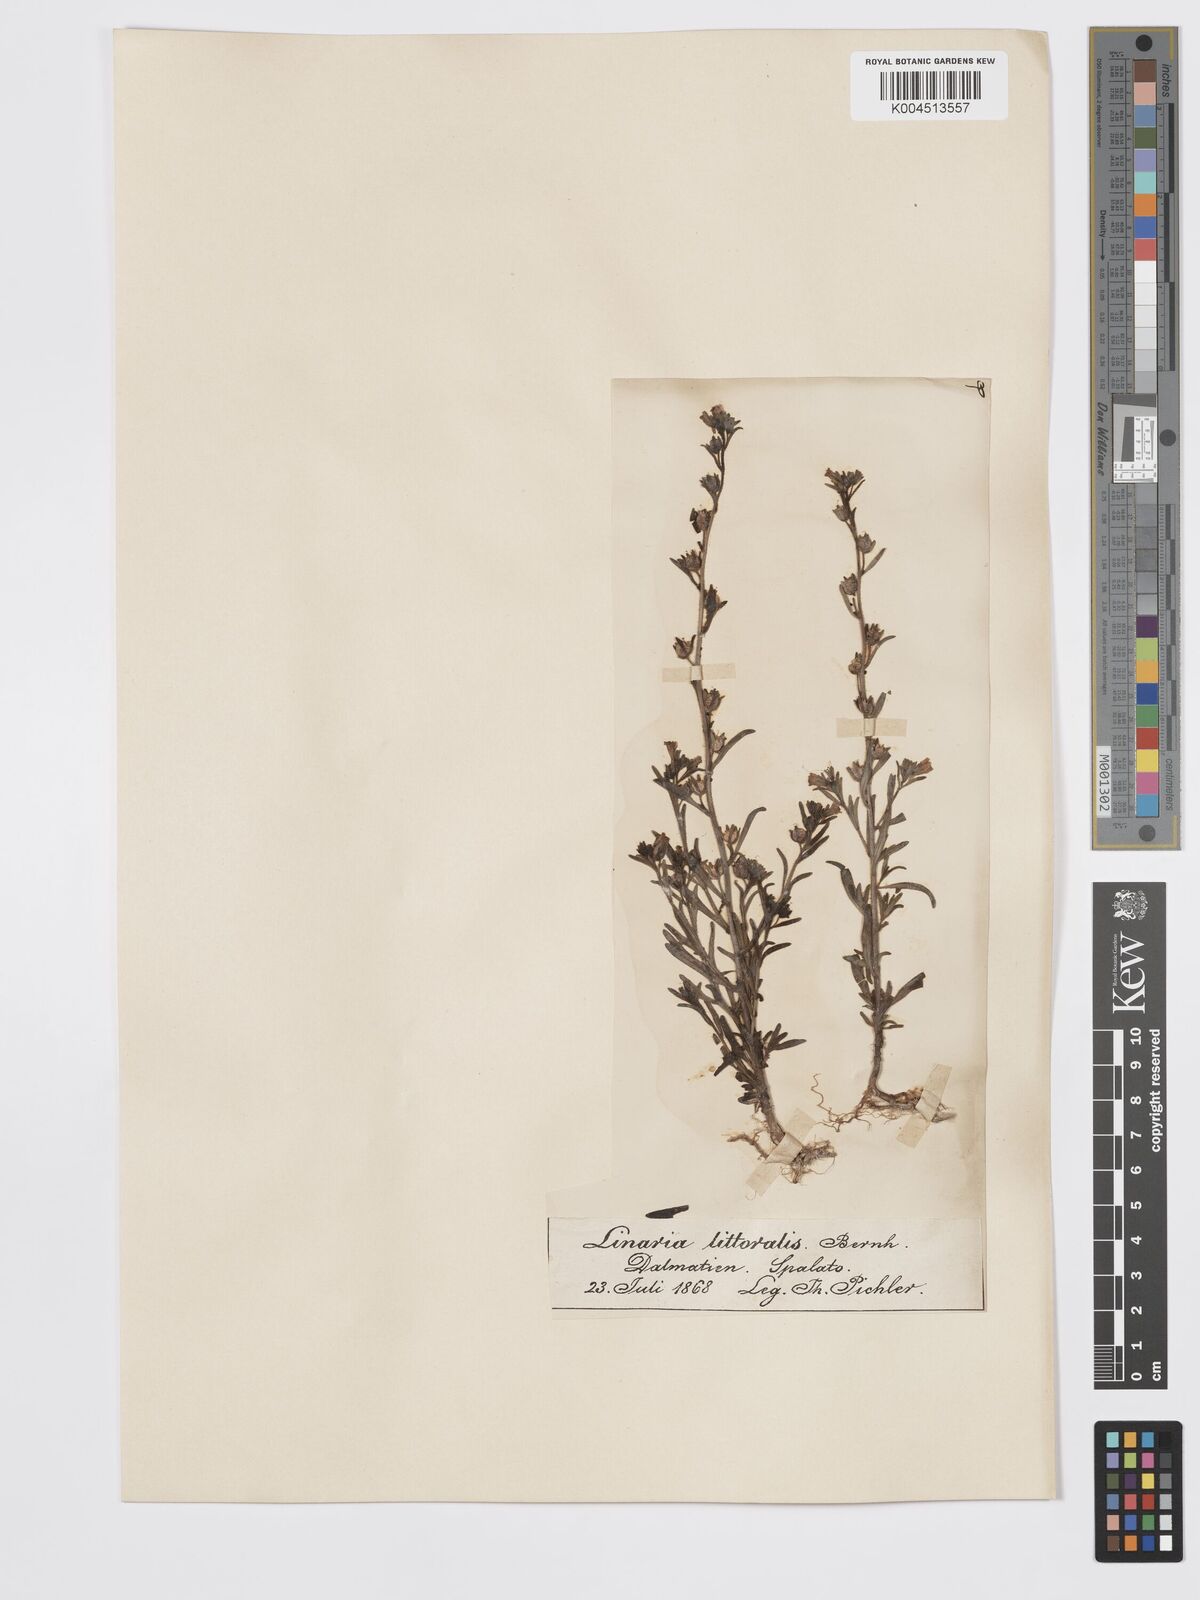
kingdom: Plantae
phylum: Tracheophyta
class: Magnoliopsida
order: Lamiales
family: Plantaginaceae
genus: Chaenorhinum
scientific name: Chaenorhinum minus
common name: Dwarf snapdragon
